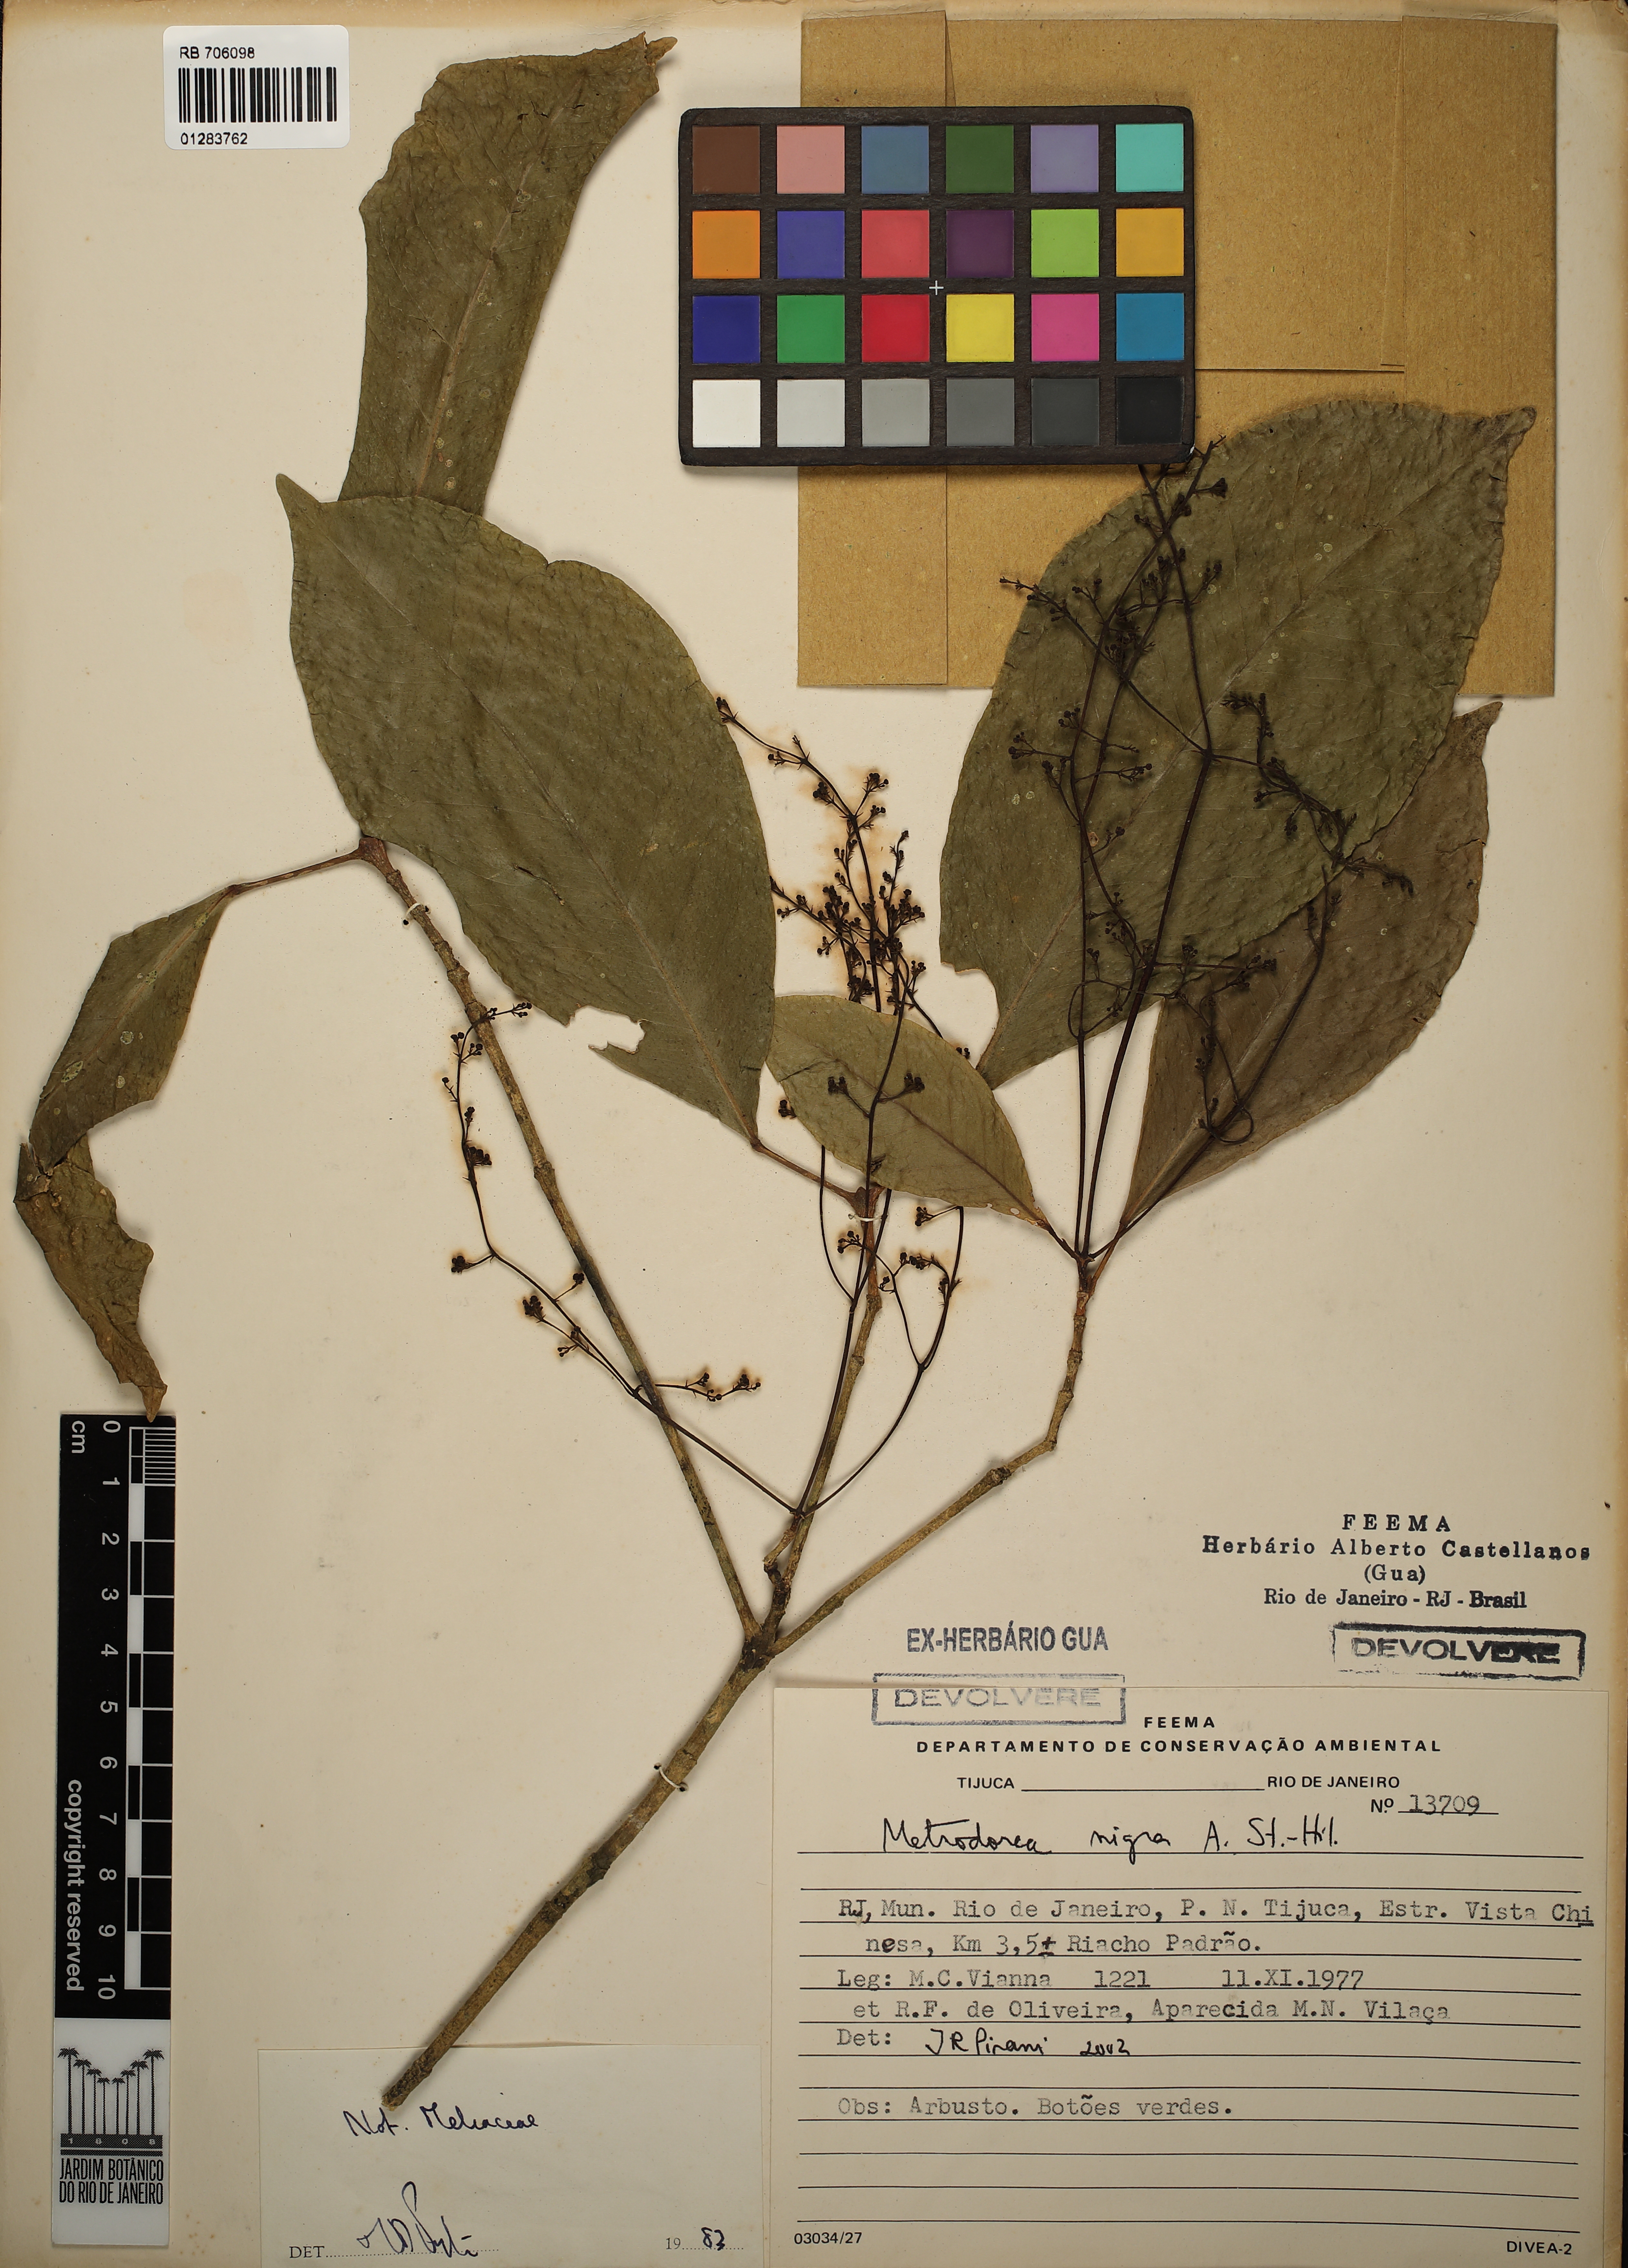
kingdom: Plantae
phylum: Tracheophyta
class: Magnoliopsida
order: Sapindales
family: Rutaceae
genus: Metrodorea
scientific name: Metrodorea nigra
